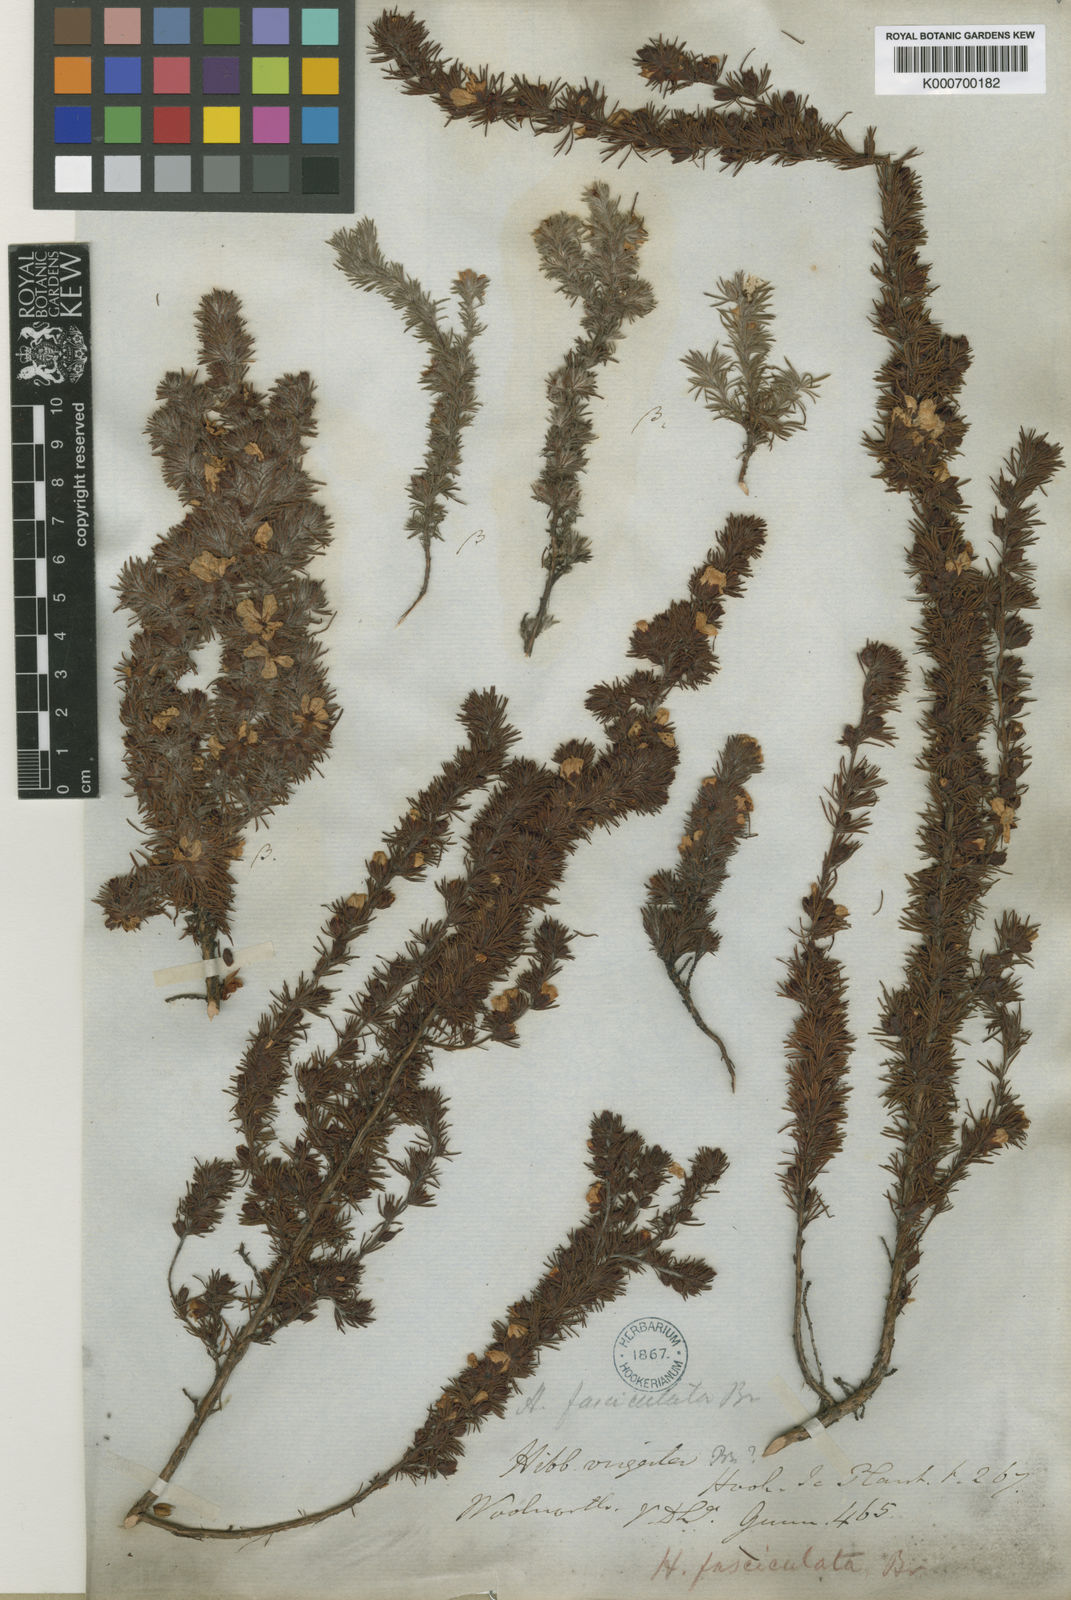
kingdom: Plantae
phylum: Tracheophyta
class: Magnoliopsida
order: Dilleniales
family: Dilleniaceae
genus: Hibbertia
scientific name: Hibbertia fasciculata
